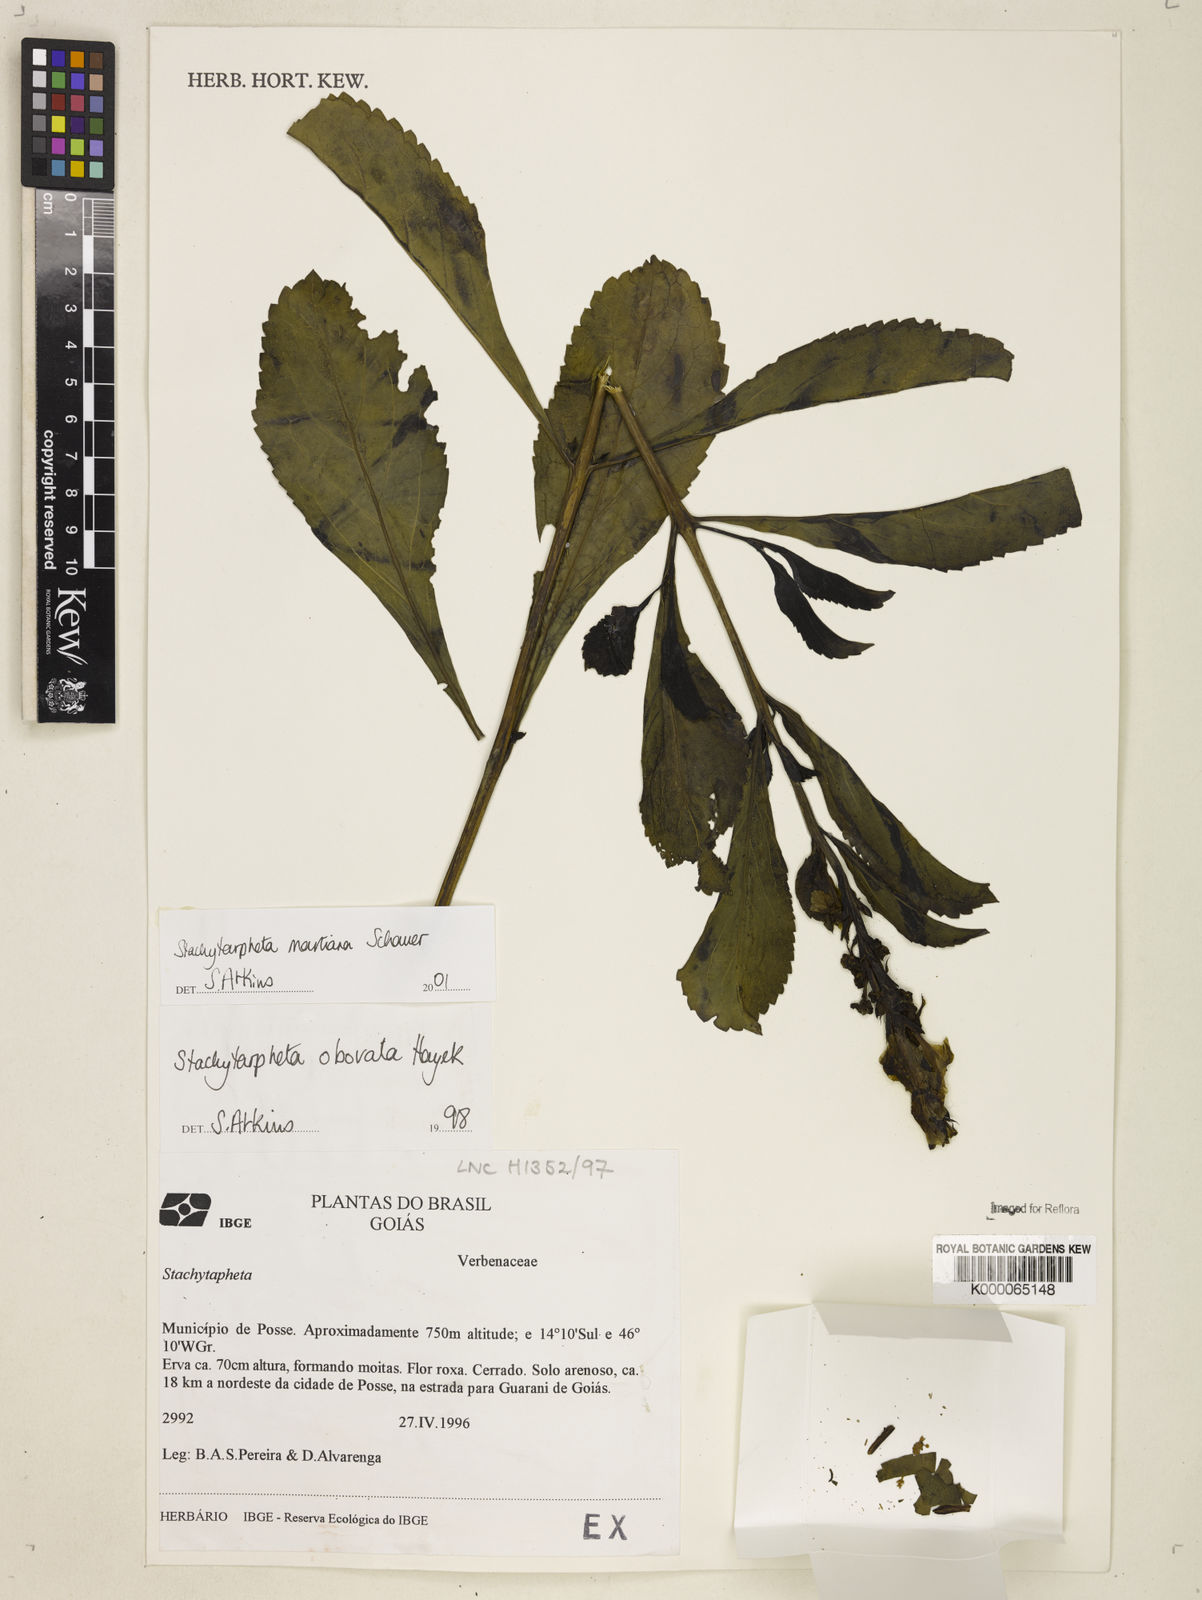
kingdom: Plantae
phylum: Tracheophyta
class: Magnoliopsida
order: Lamiales
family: Verbenaceae
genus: Stachytarpheta
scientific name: Stachytarpheta martiana
